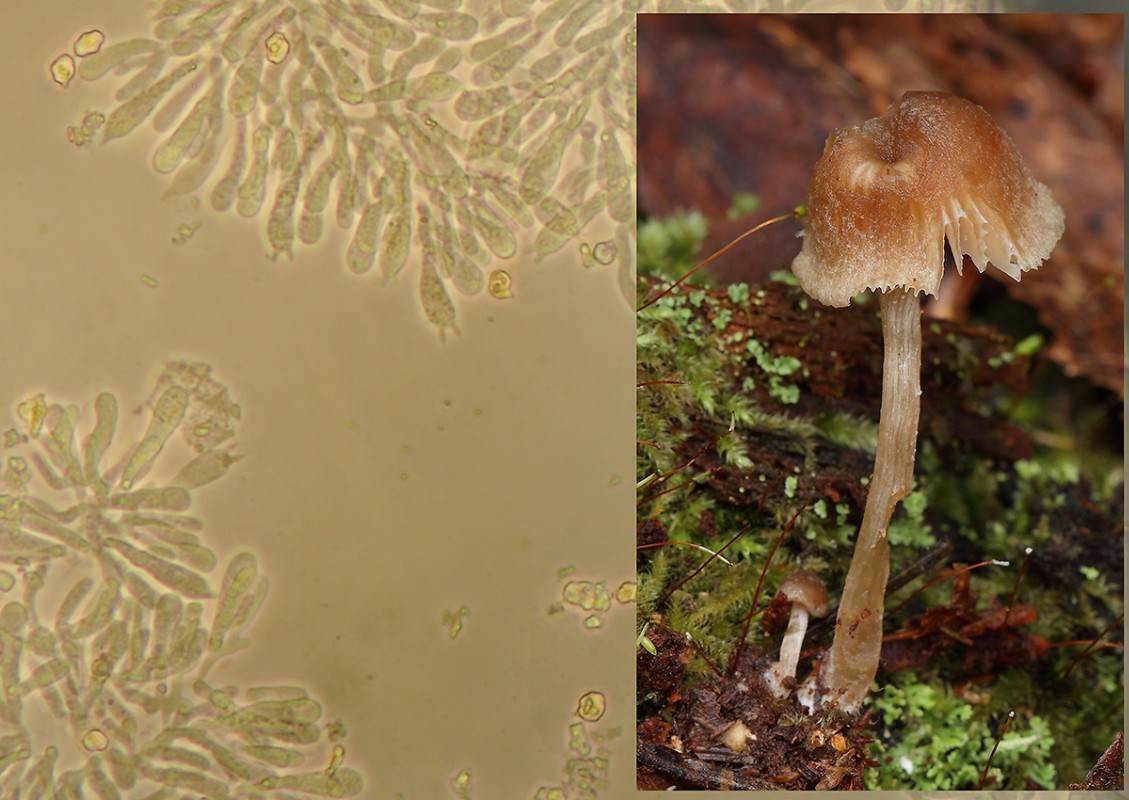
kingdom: Fungi
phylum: Basidiomycota
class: Agaricomycetes
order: Agaricales
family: Entolomataceae
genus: Entoloma
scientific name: Entoloma cetratum
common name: voks-rødblad
